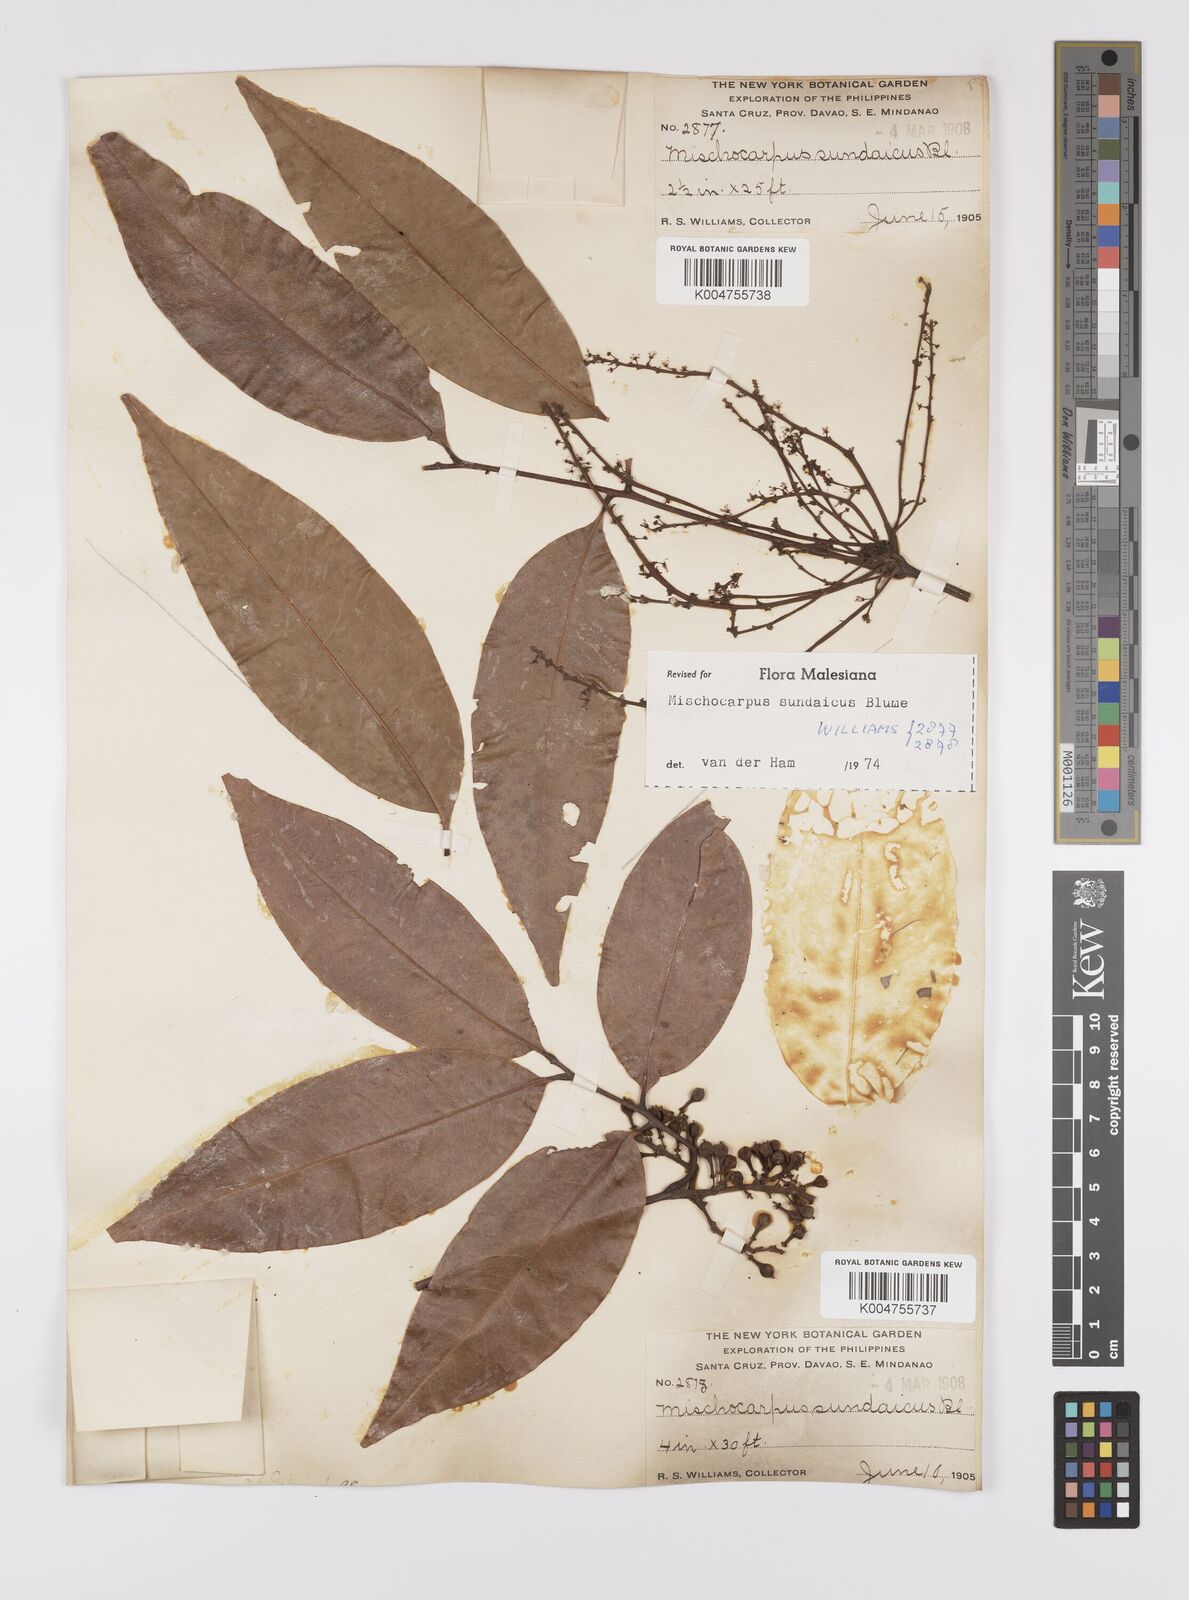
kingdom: Plantae
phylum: Tracheophyta
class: Magnoliopsida
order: Sapindales
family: Sapindaceae
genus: Mischocarpus
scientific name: Mischocarpus sundaicus
